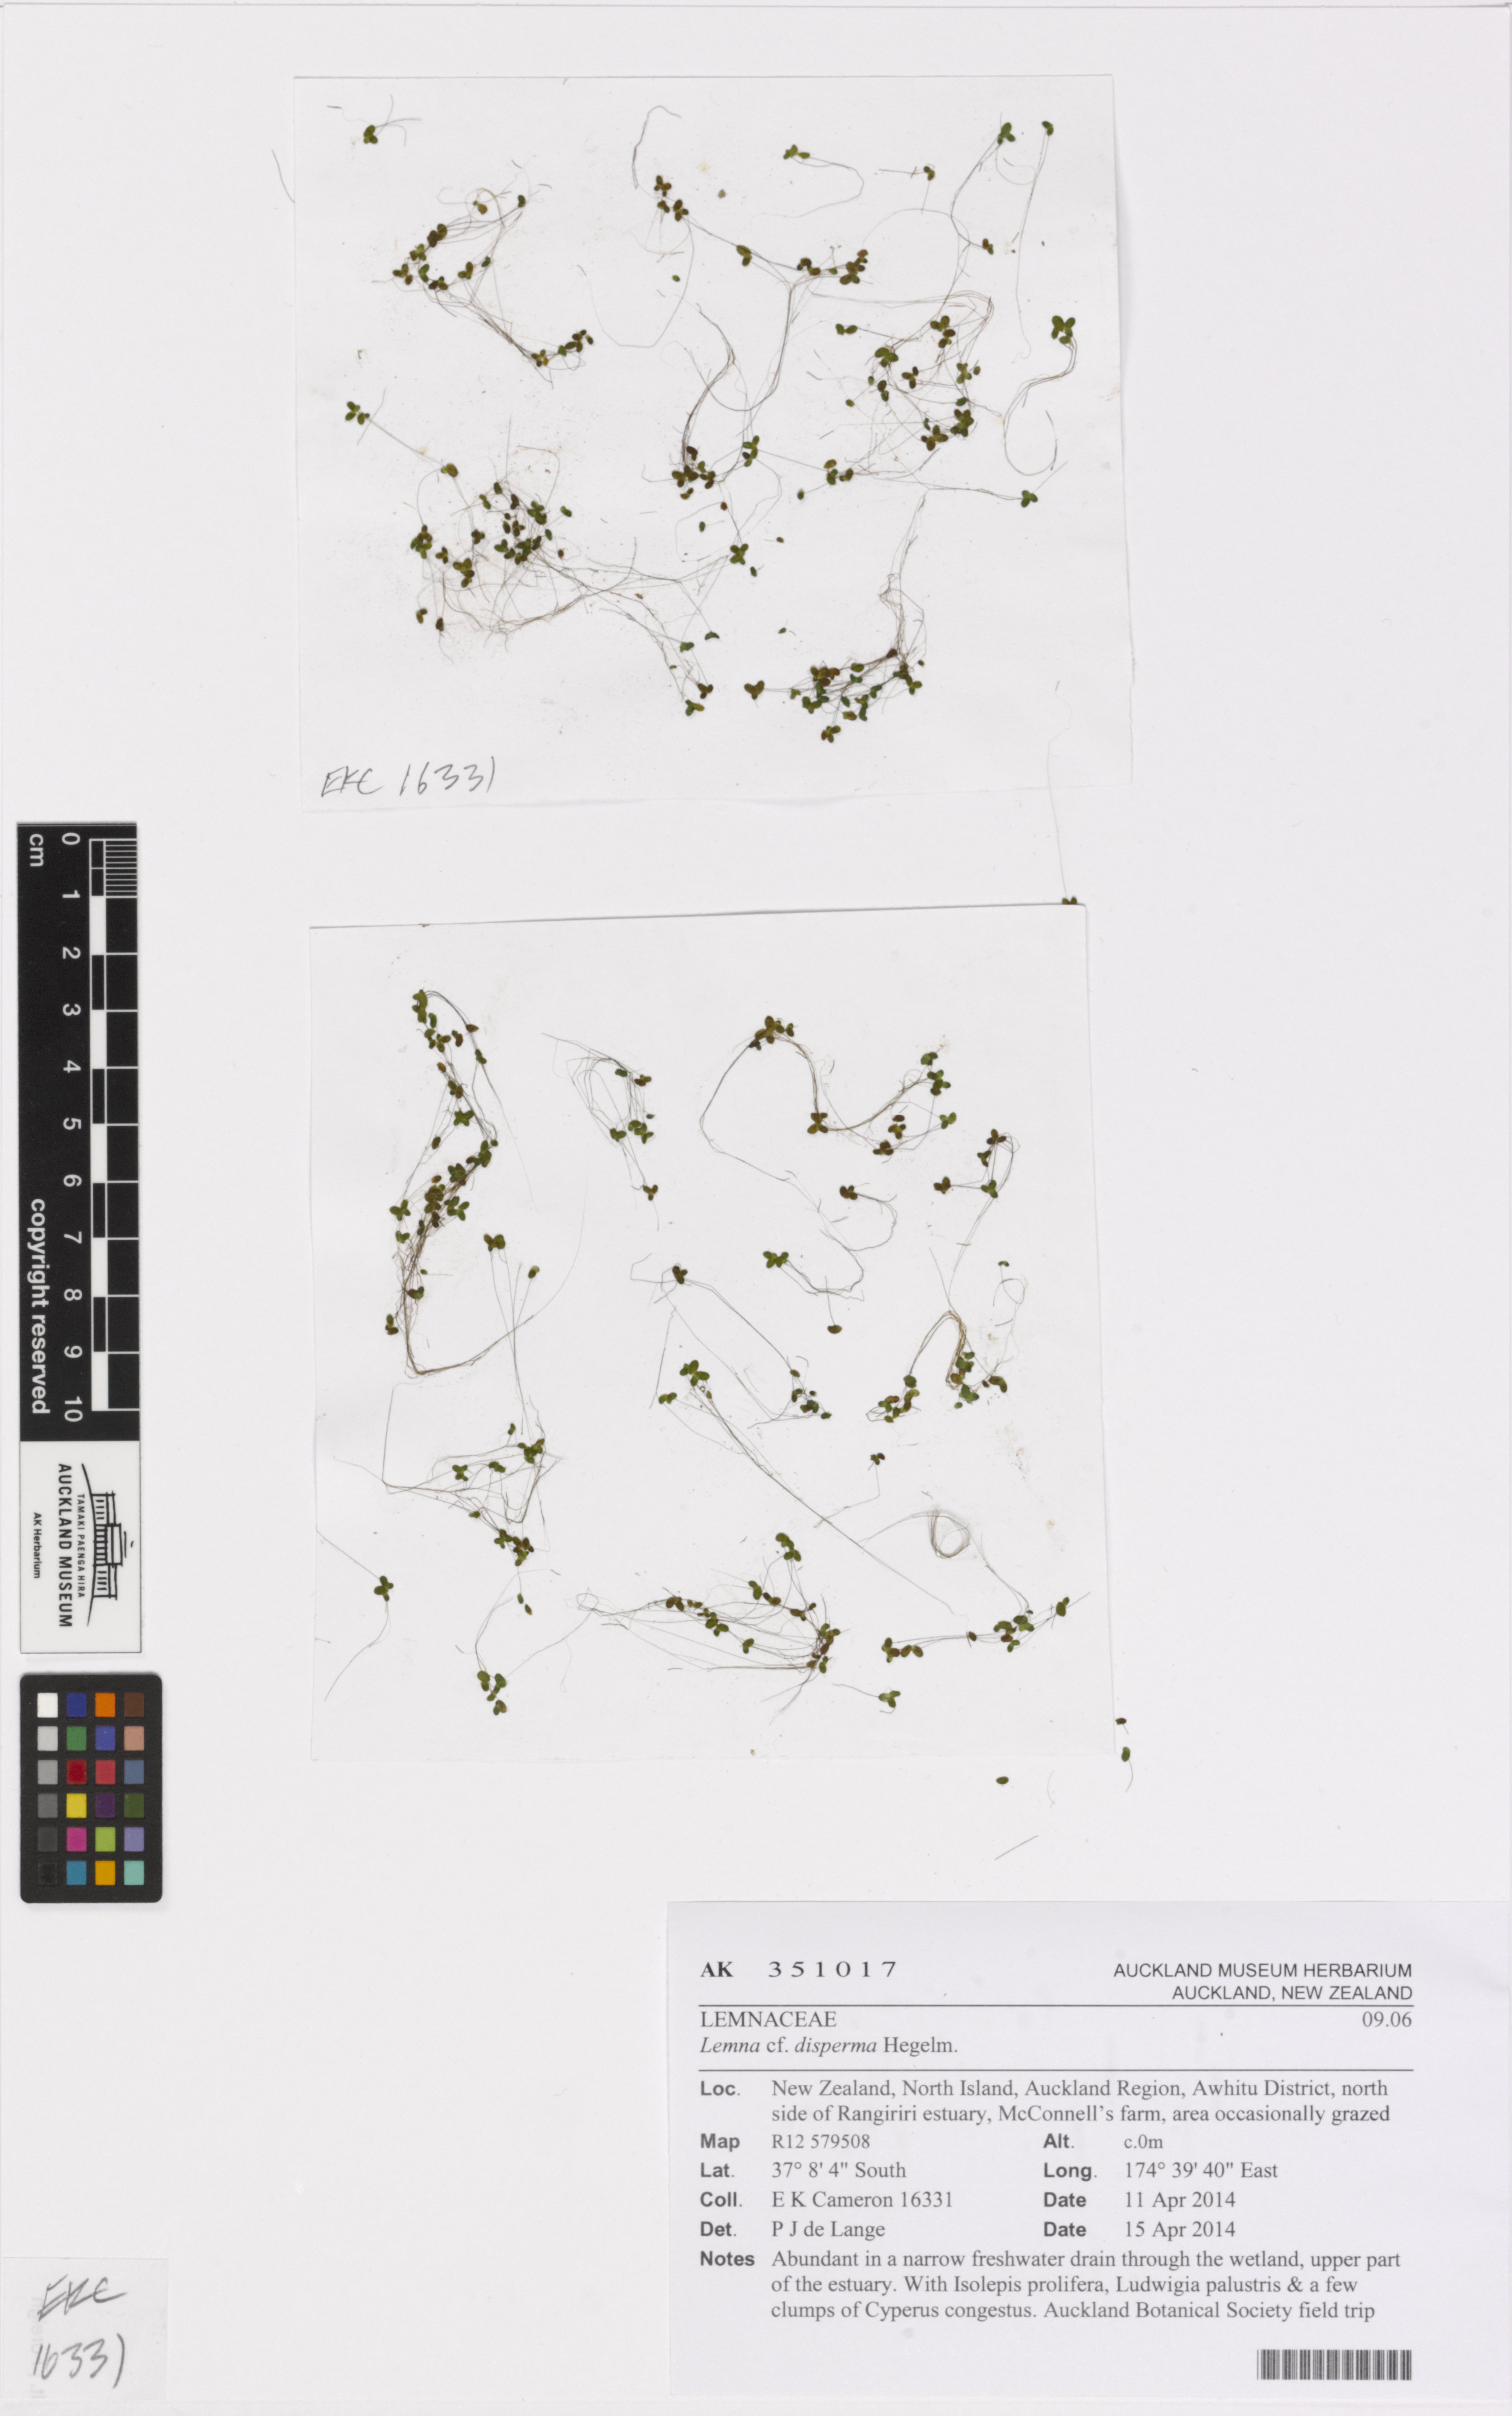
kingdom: Plantae
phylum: Tracheophyta
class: Liliopsida
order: Alismatales
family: Araceae
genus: Lemna
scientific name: Lemna disperma
